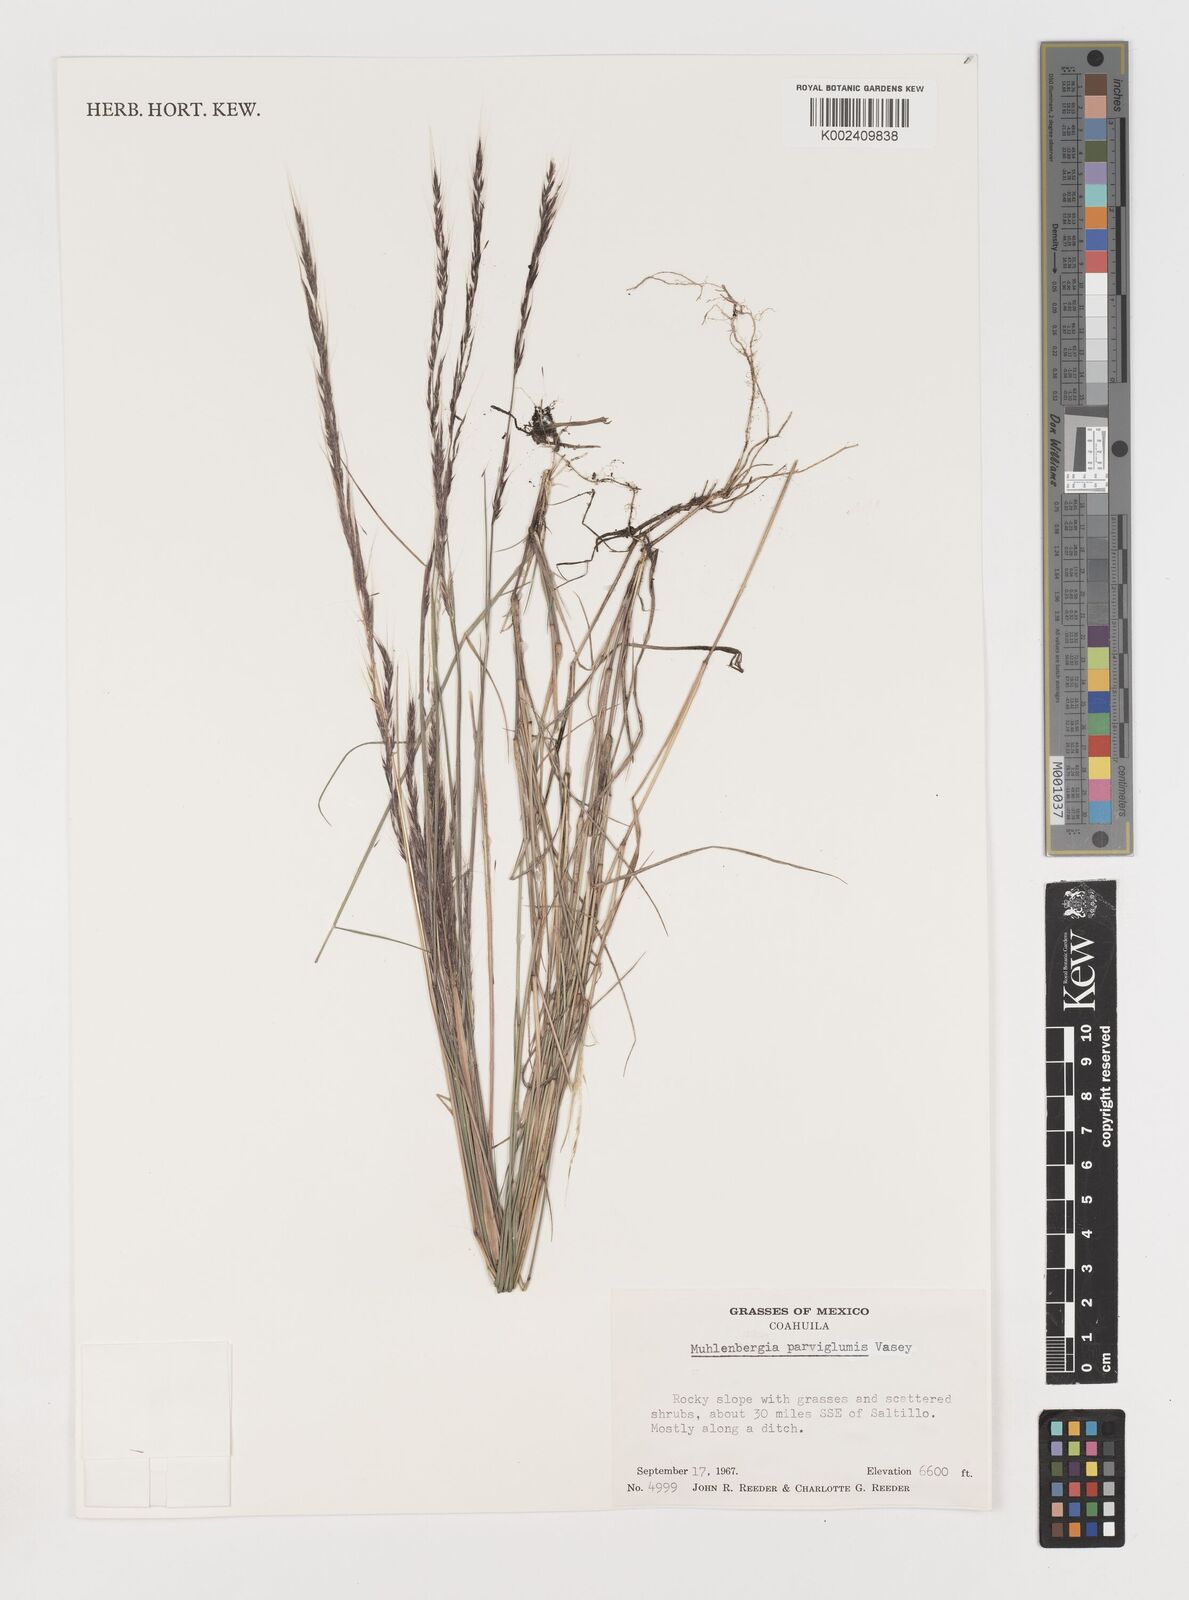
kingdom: Plantae
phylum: Tracheophyta
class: Liliopsida
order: Poales
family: Poaceae
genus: Muhlenbergia
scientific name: Muhlenbergia spiciformis
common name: Longawn muhly
